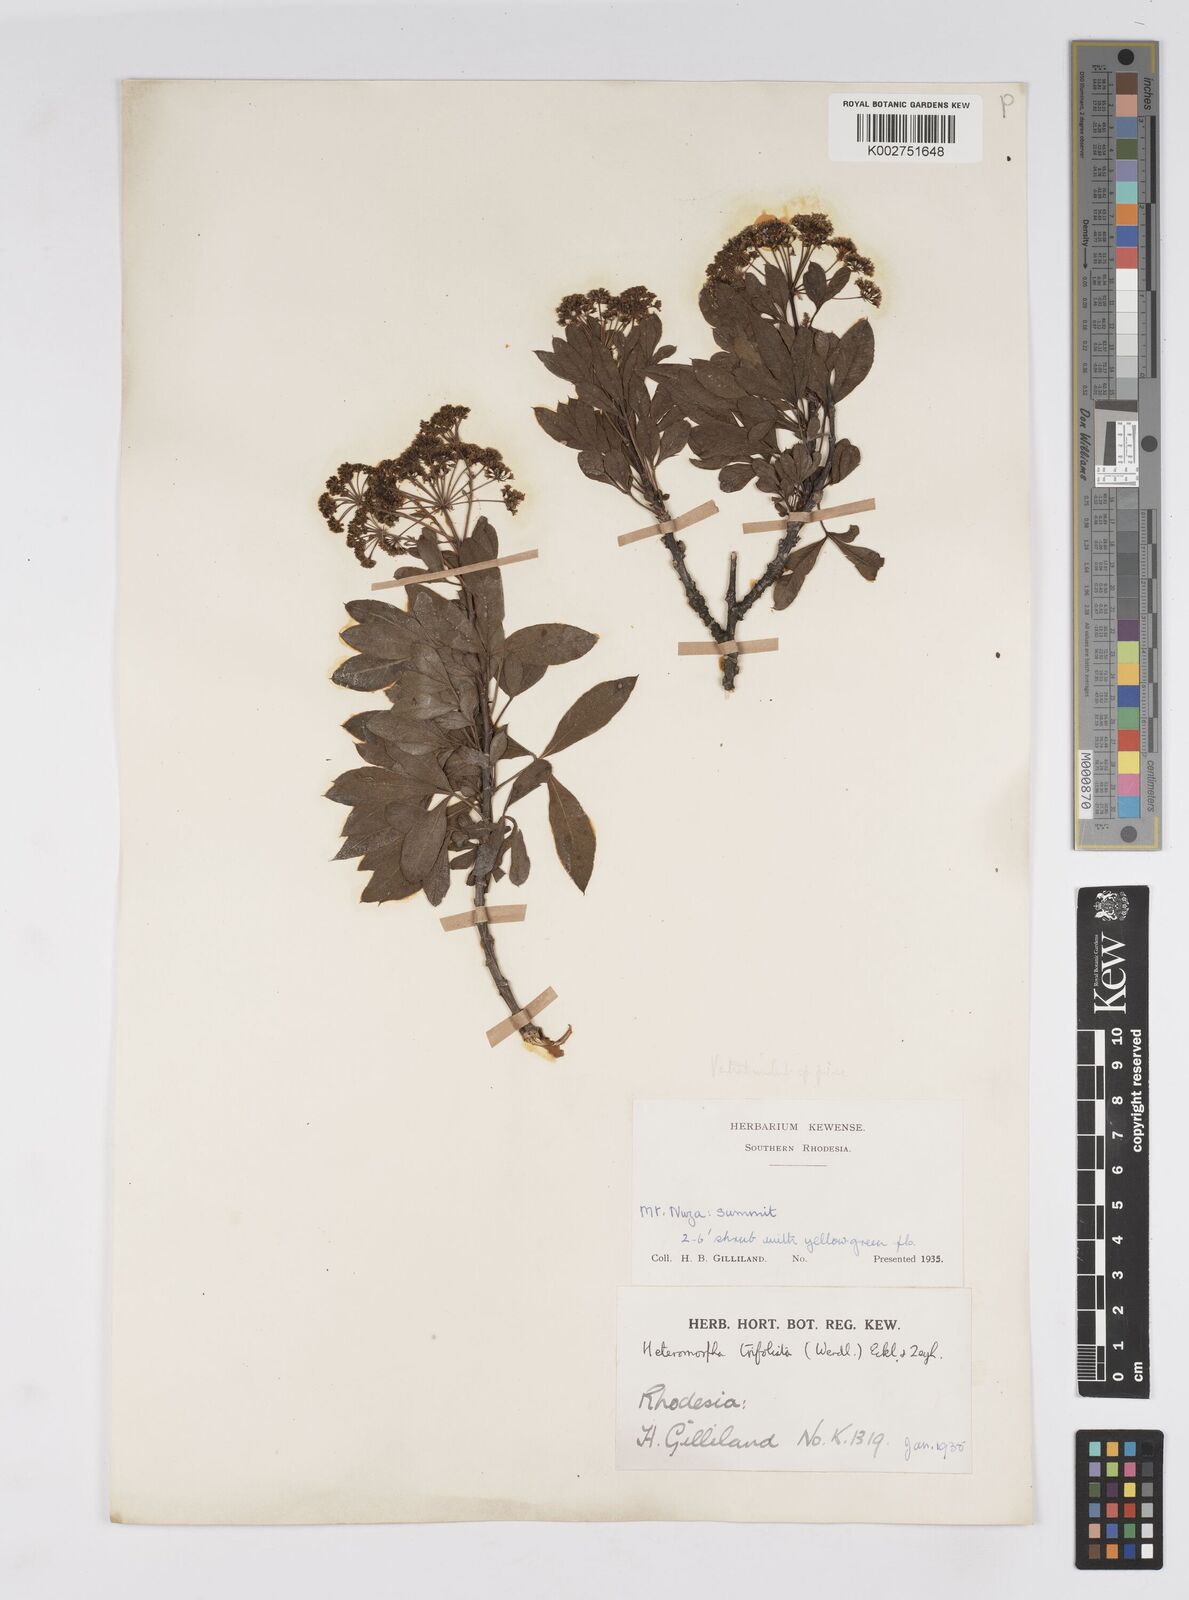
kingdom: Plantae
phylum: Tracheophyta
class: Magnoliopsida
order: Apiales
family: Apiaceae
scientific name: Apiaceae
